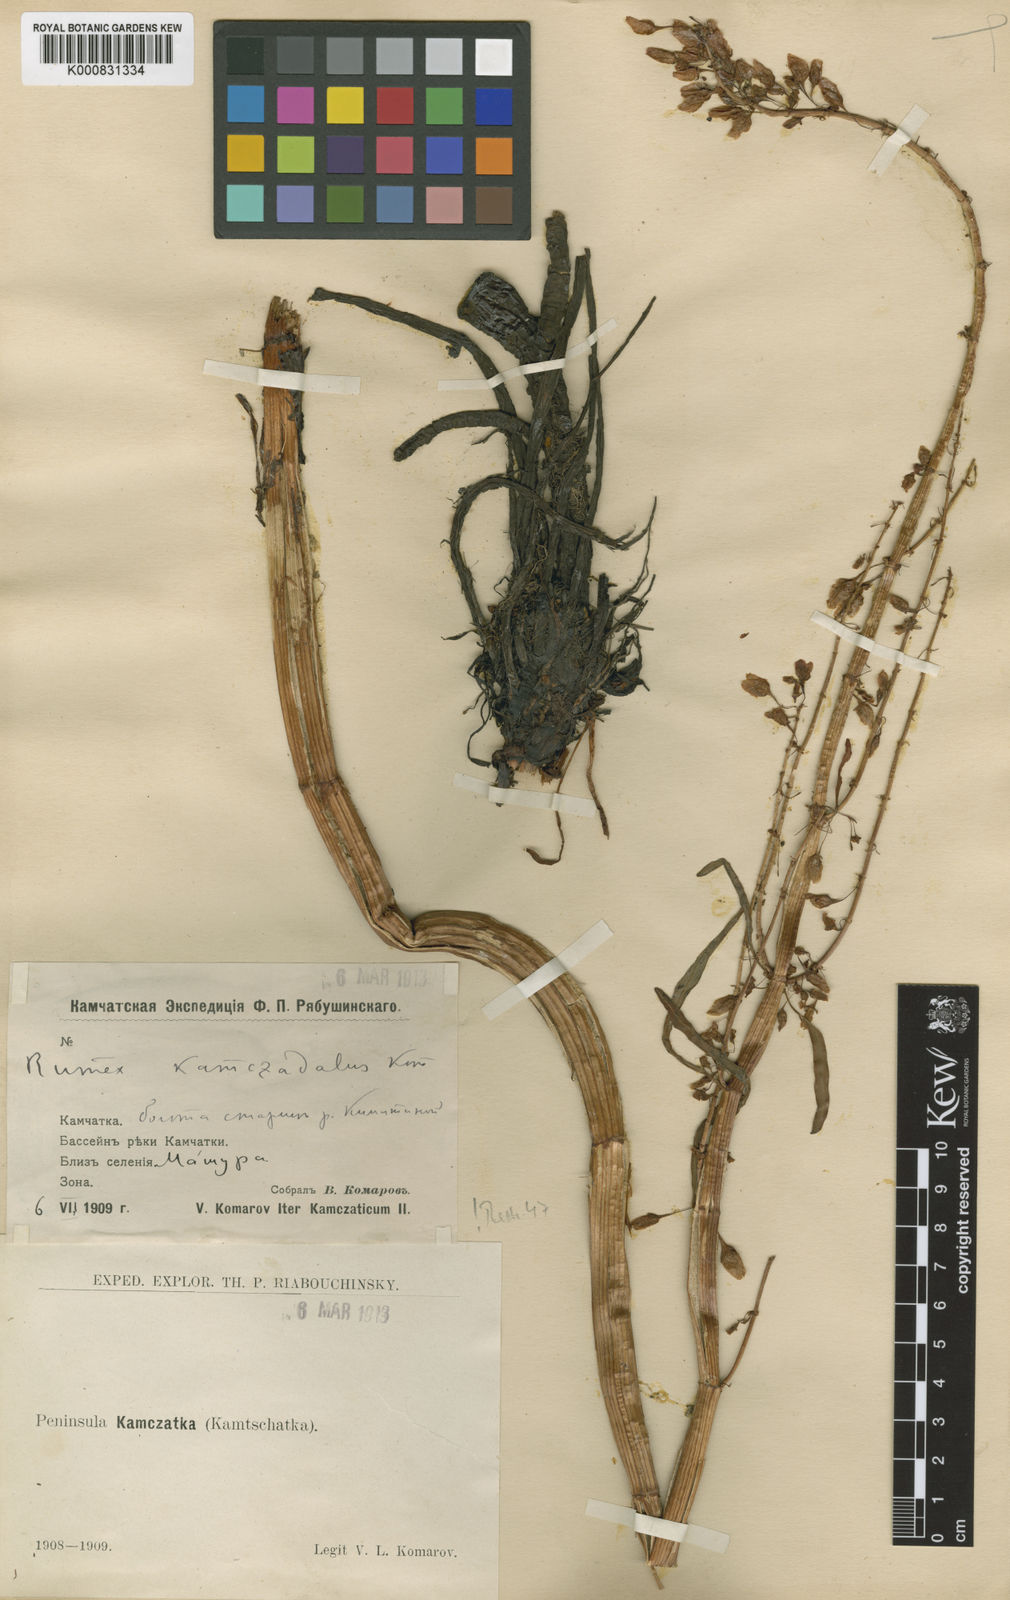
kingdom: Plantae
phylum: Tracheophyta
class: Magnoliopsida
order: Caryophyllales
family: Polygonaceae
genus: Rumex
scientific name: Rumex
